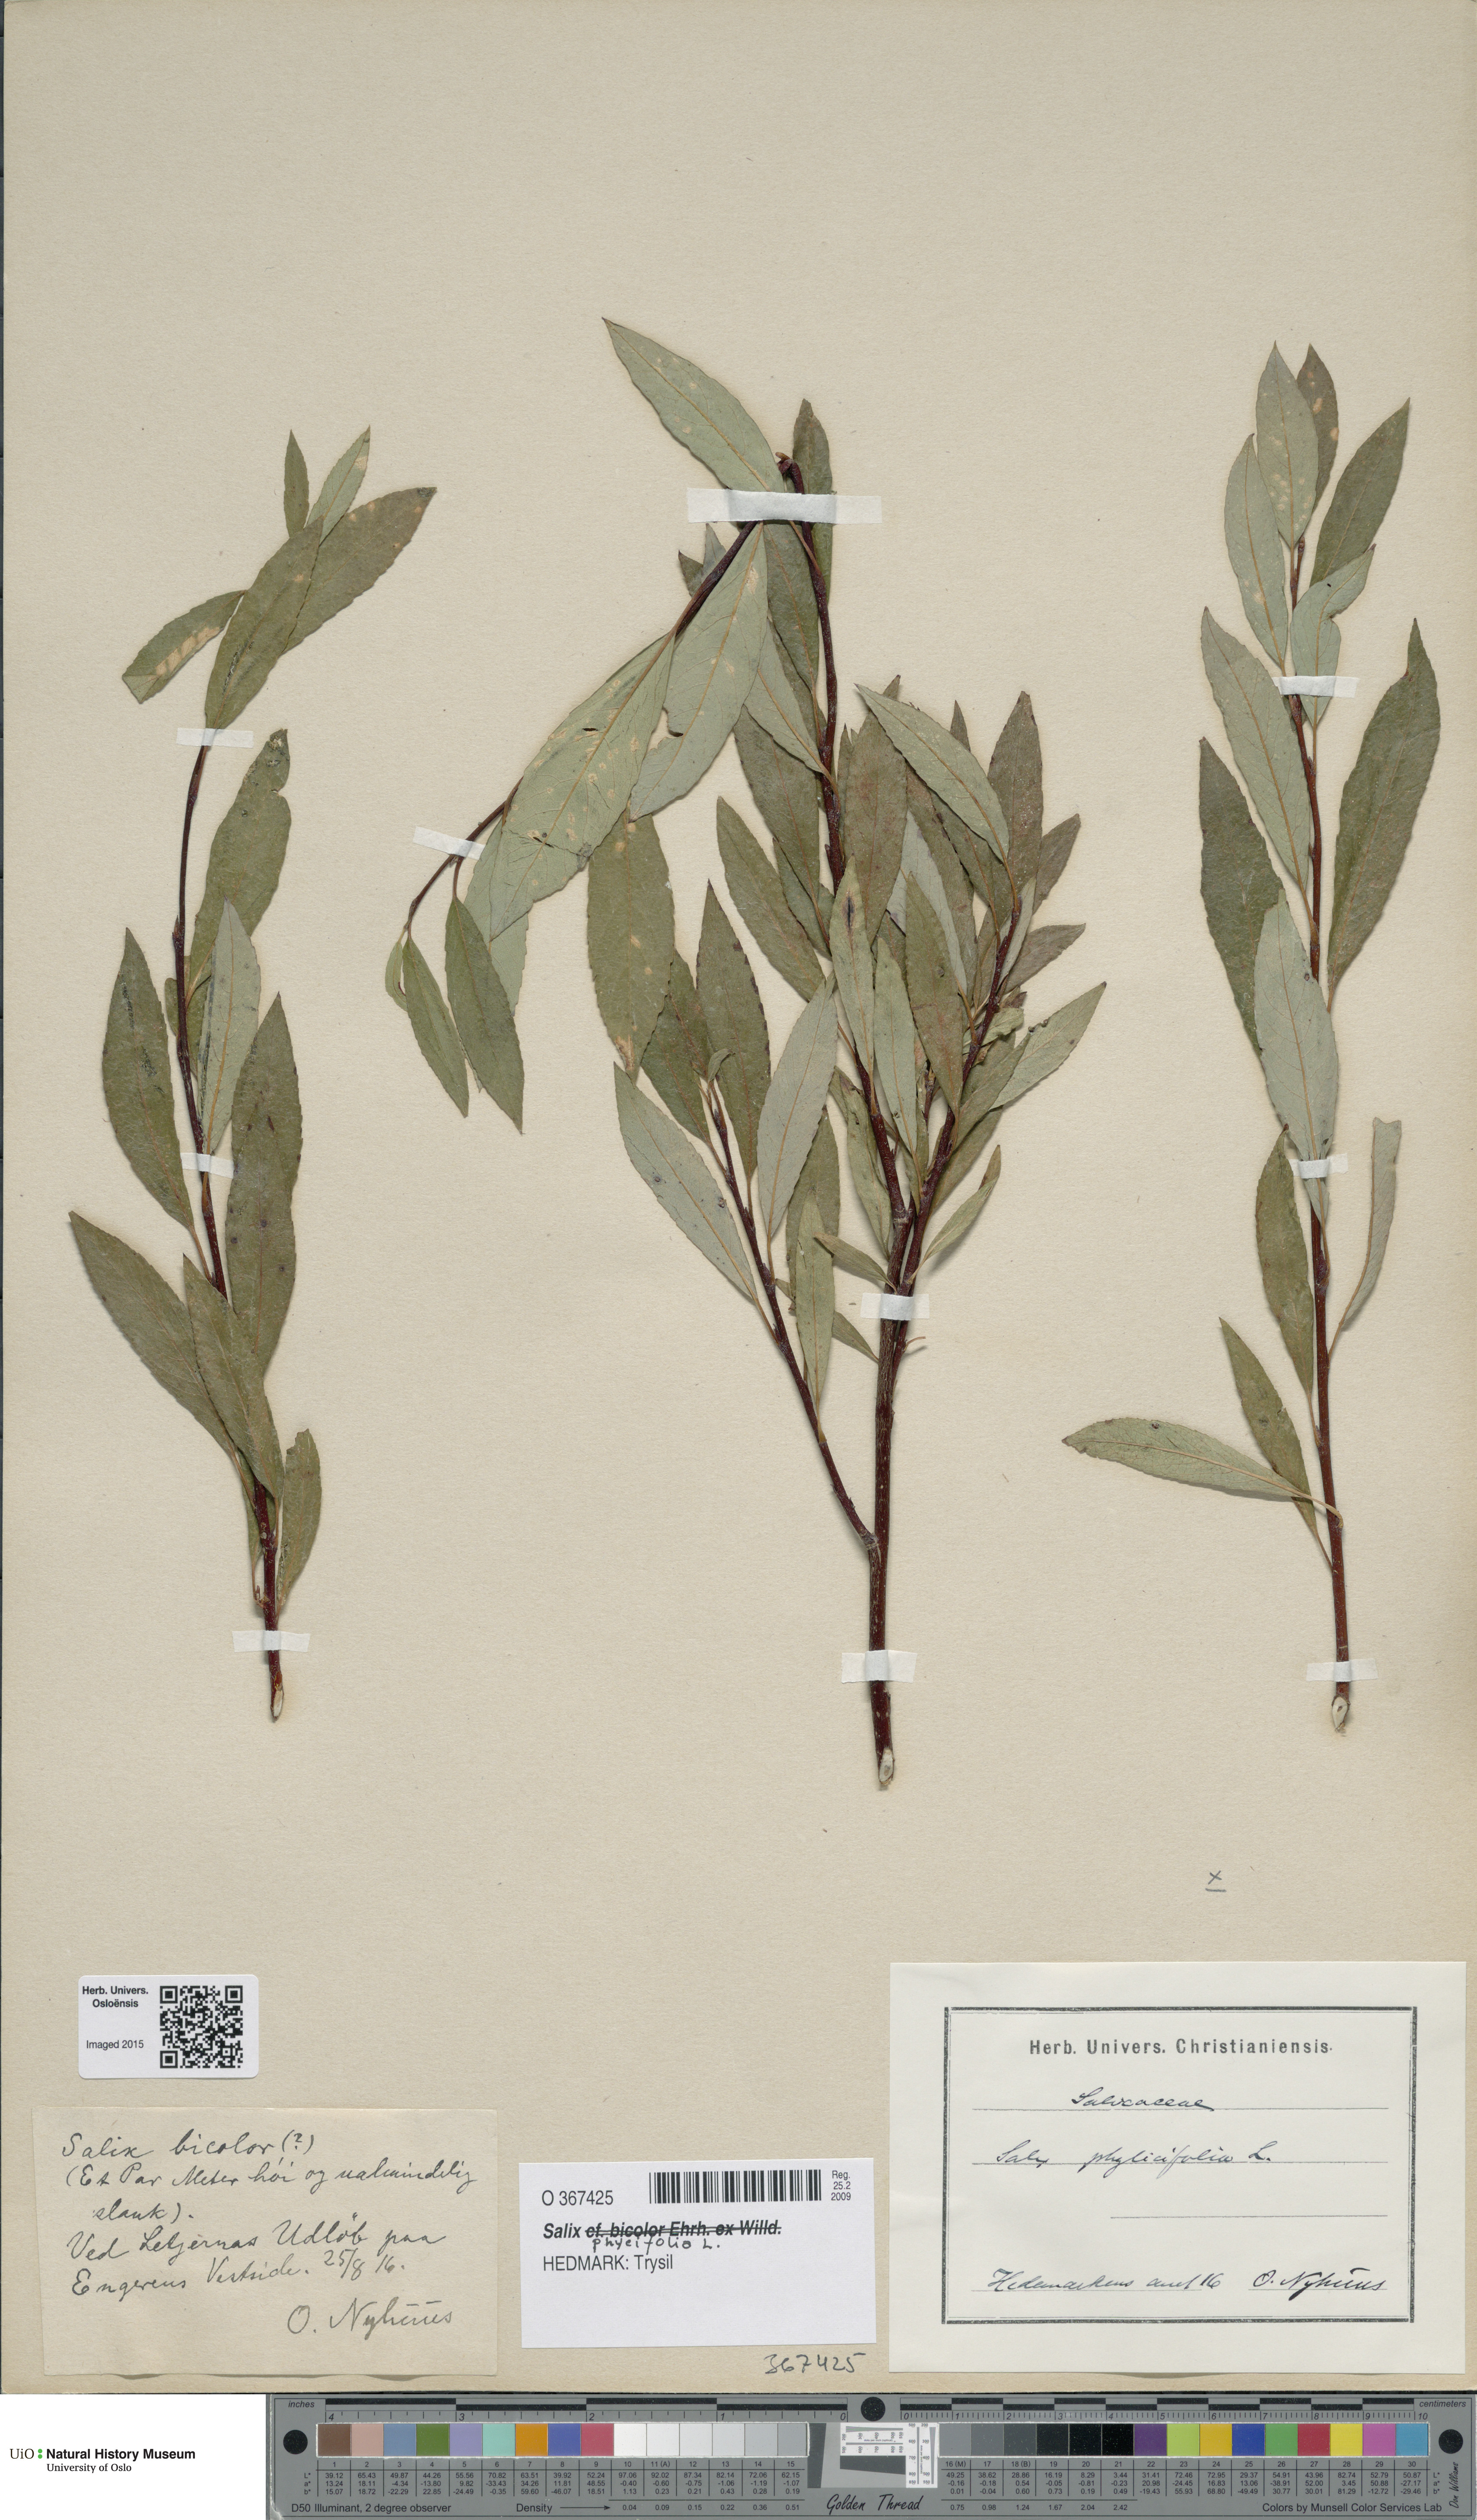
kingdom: Plantae
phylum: Tracheophyta
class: Magnoliopsida
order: Malpighiales
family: Salicaceae
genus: Salix
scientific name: Salix phylicifolia
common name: Tea-leaved willow
